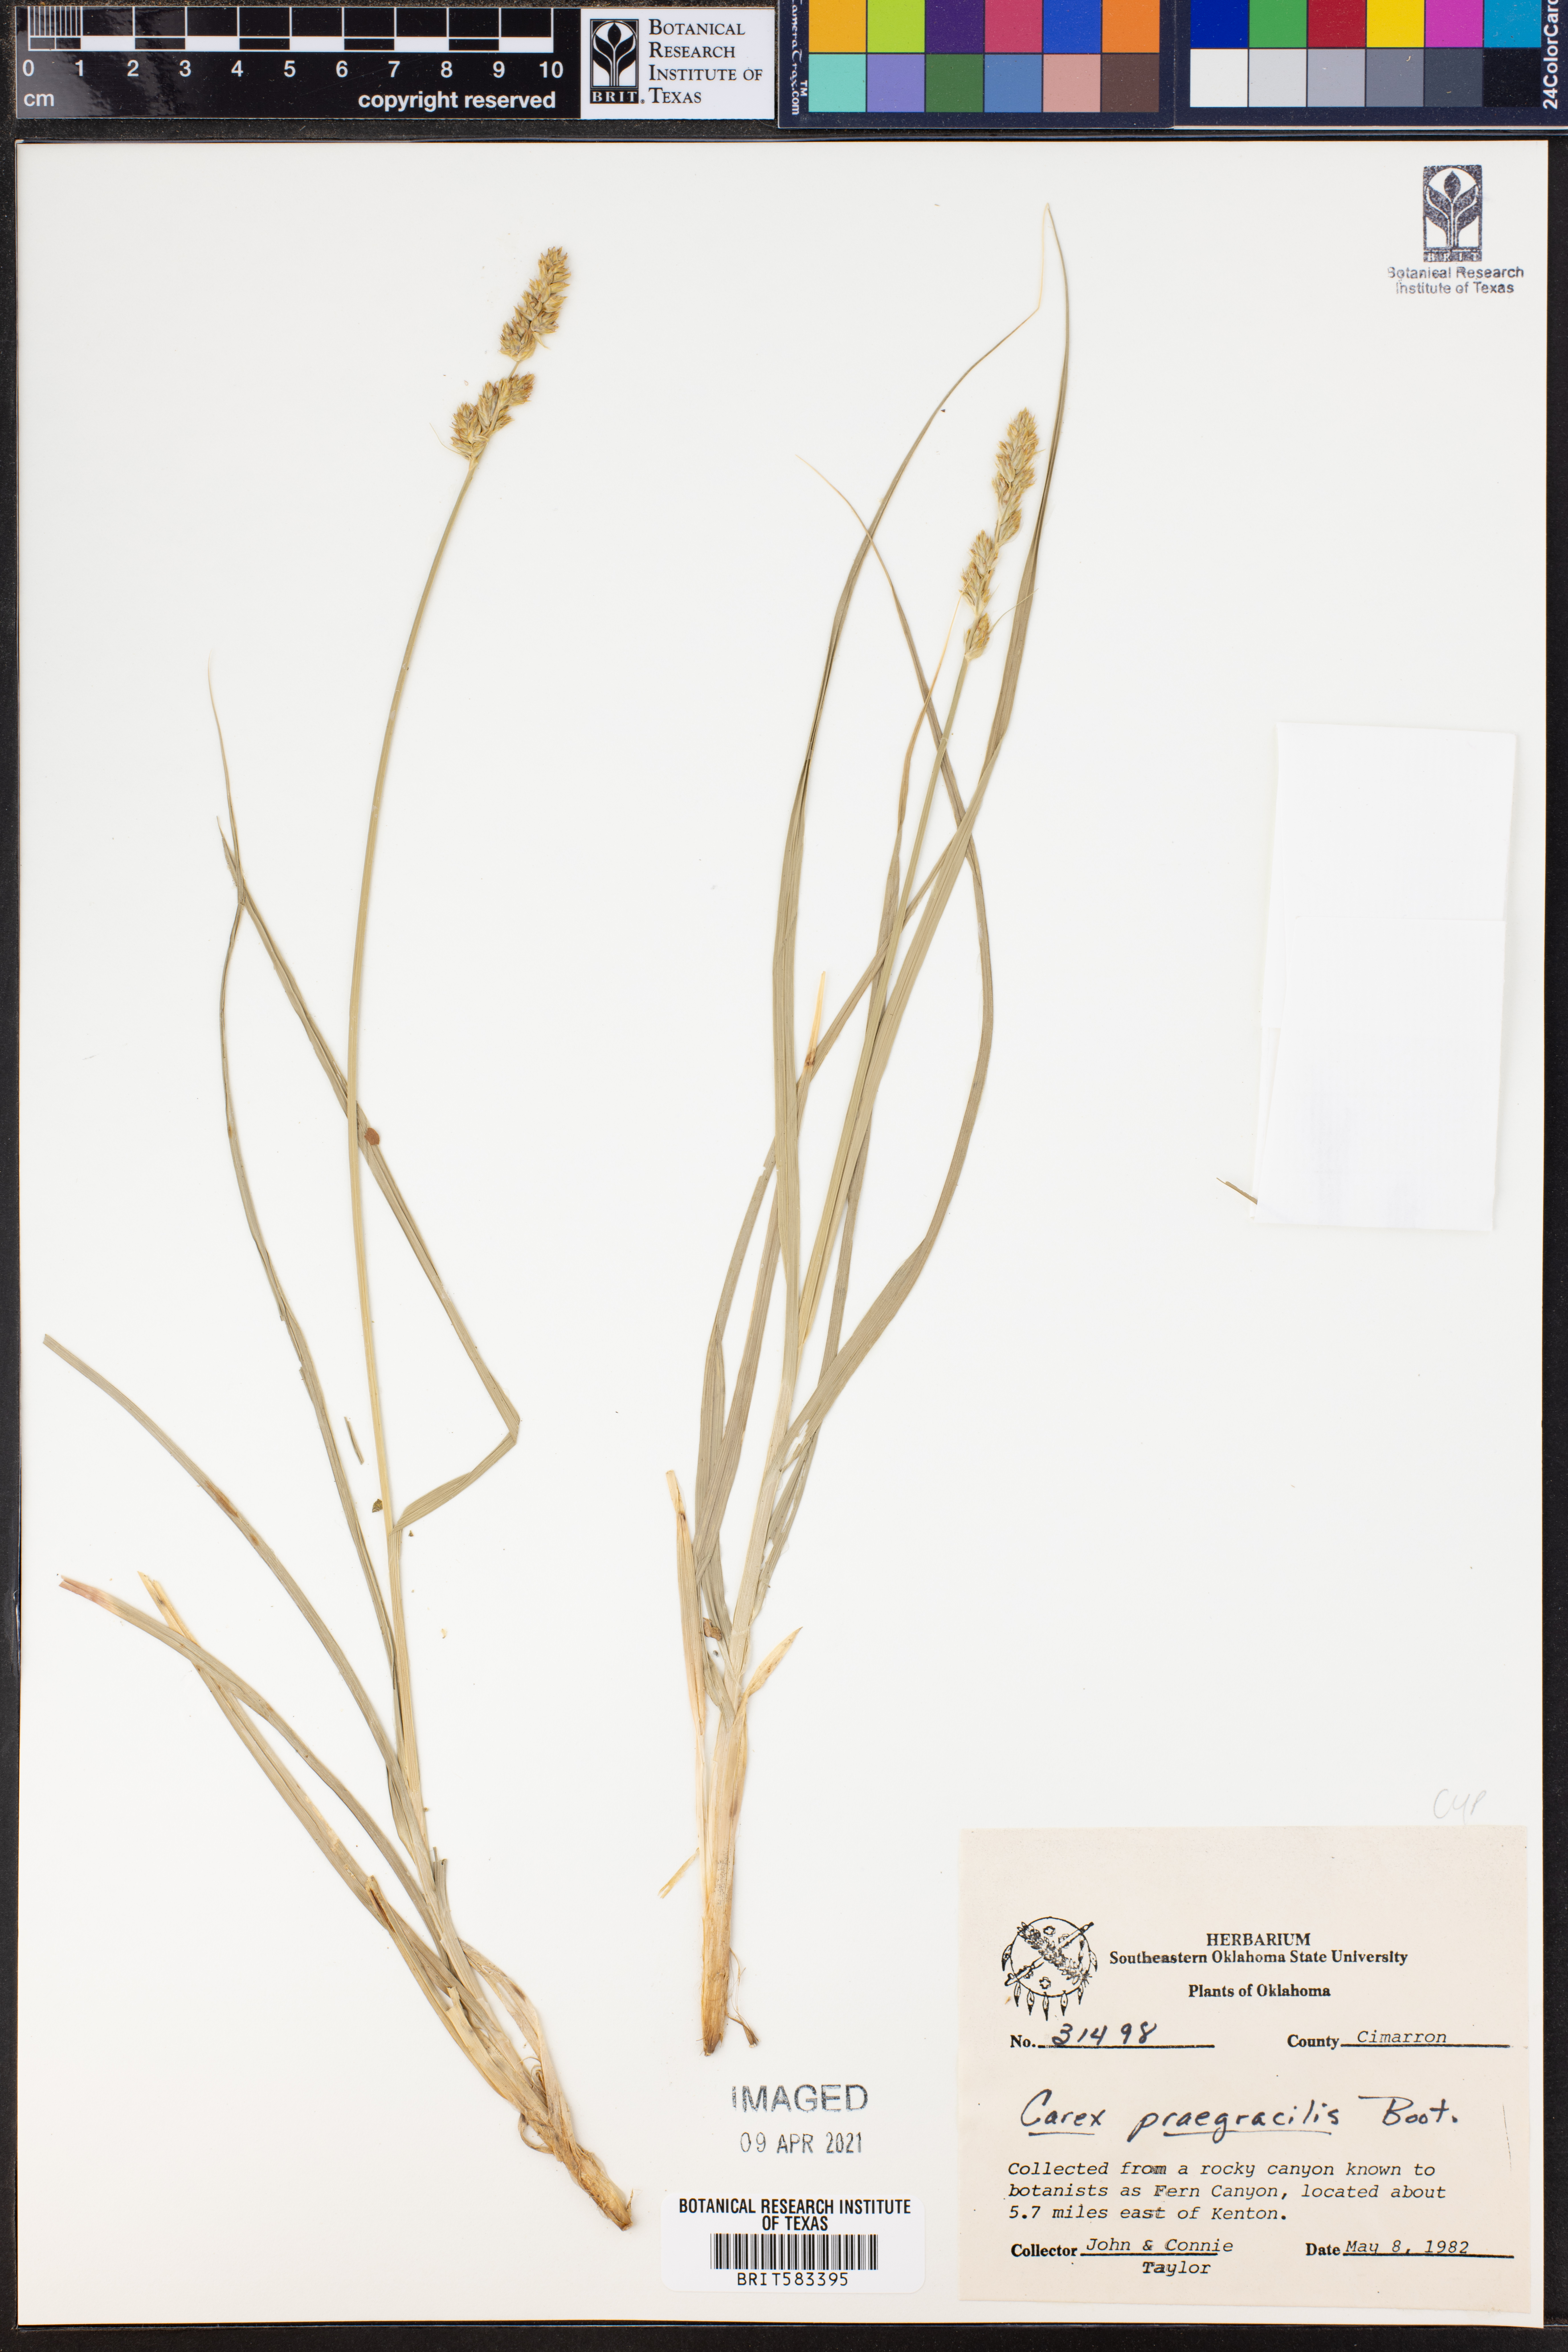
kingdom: Plantae
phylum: Tracheophyta
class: Liliopsida
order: Poales
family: Cyperaceae
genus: Carex
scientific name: Carex praegracilis
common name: Black creeper sedge
